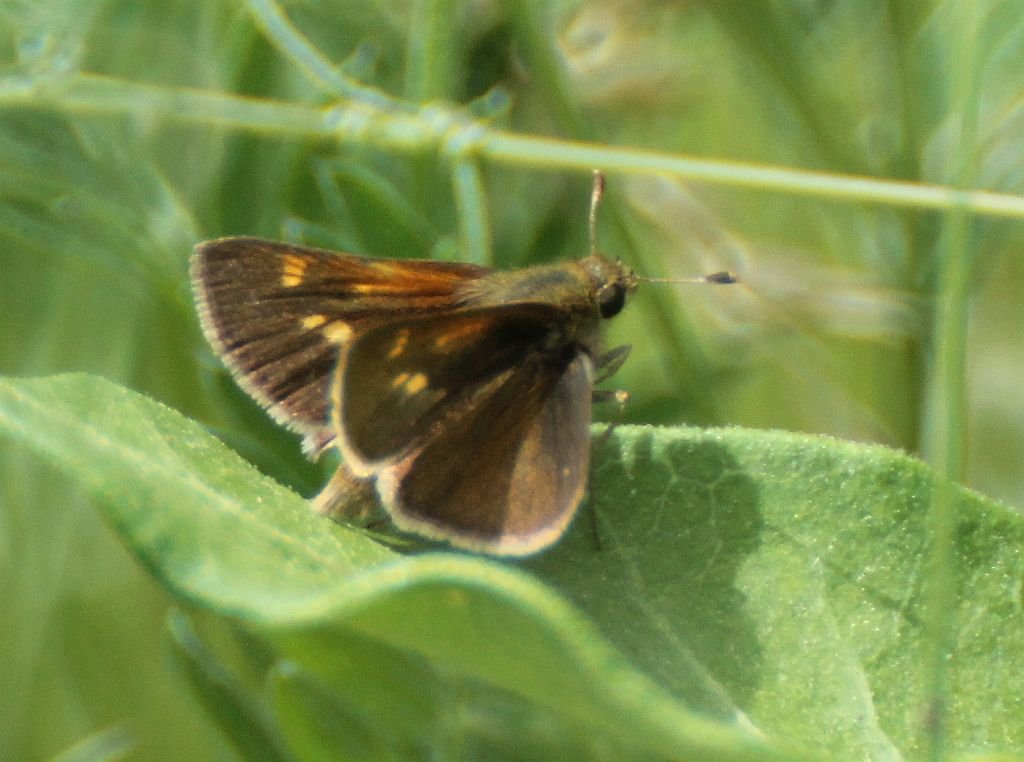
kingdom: Animalia
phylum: Arthropoda
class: Insecta
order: Lepidoptera
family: Hesperiidae
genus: Polites
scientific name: Polites themistocles
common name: Tawny-edged Skipper
